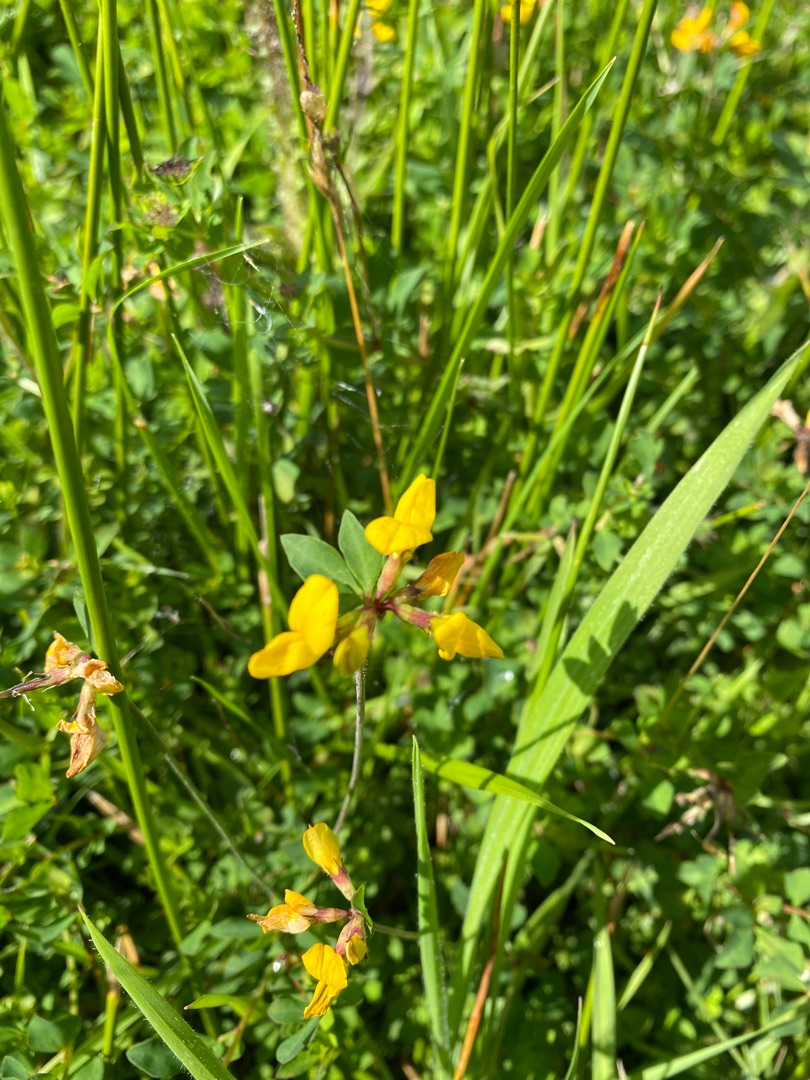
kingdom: Plantae
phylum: Tracheophyta
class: Magnoliopsida
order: Fabales
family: Fabaceae
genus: Lotus
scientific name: Lotus corniculatus
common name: Almindelig kællingetand
